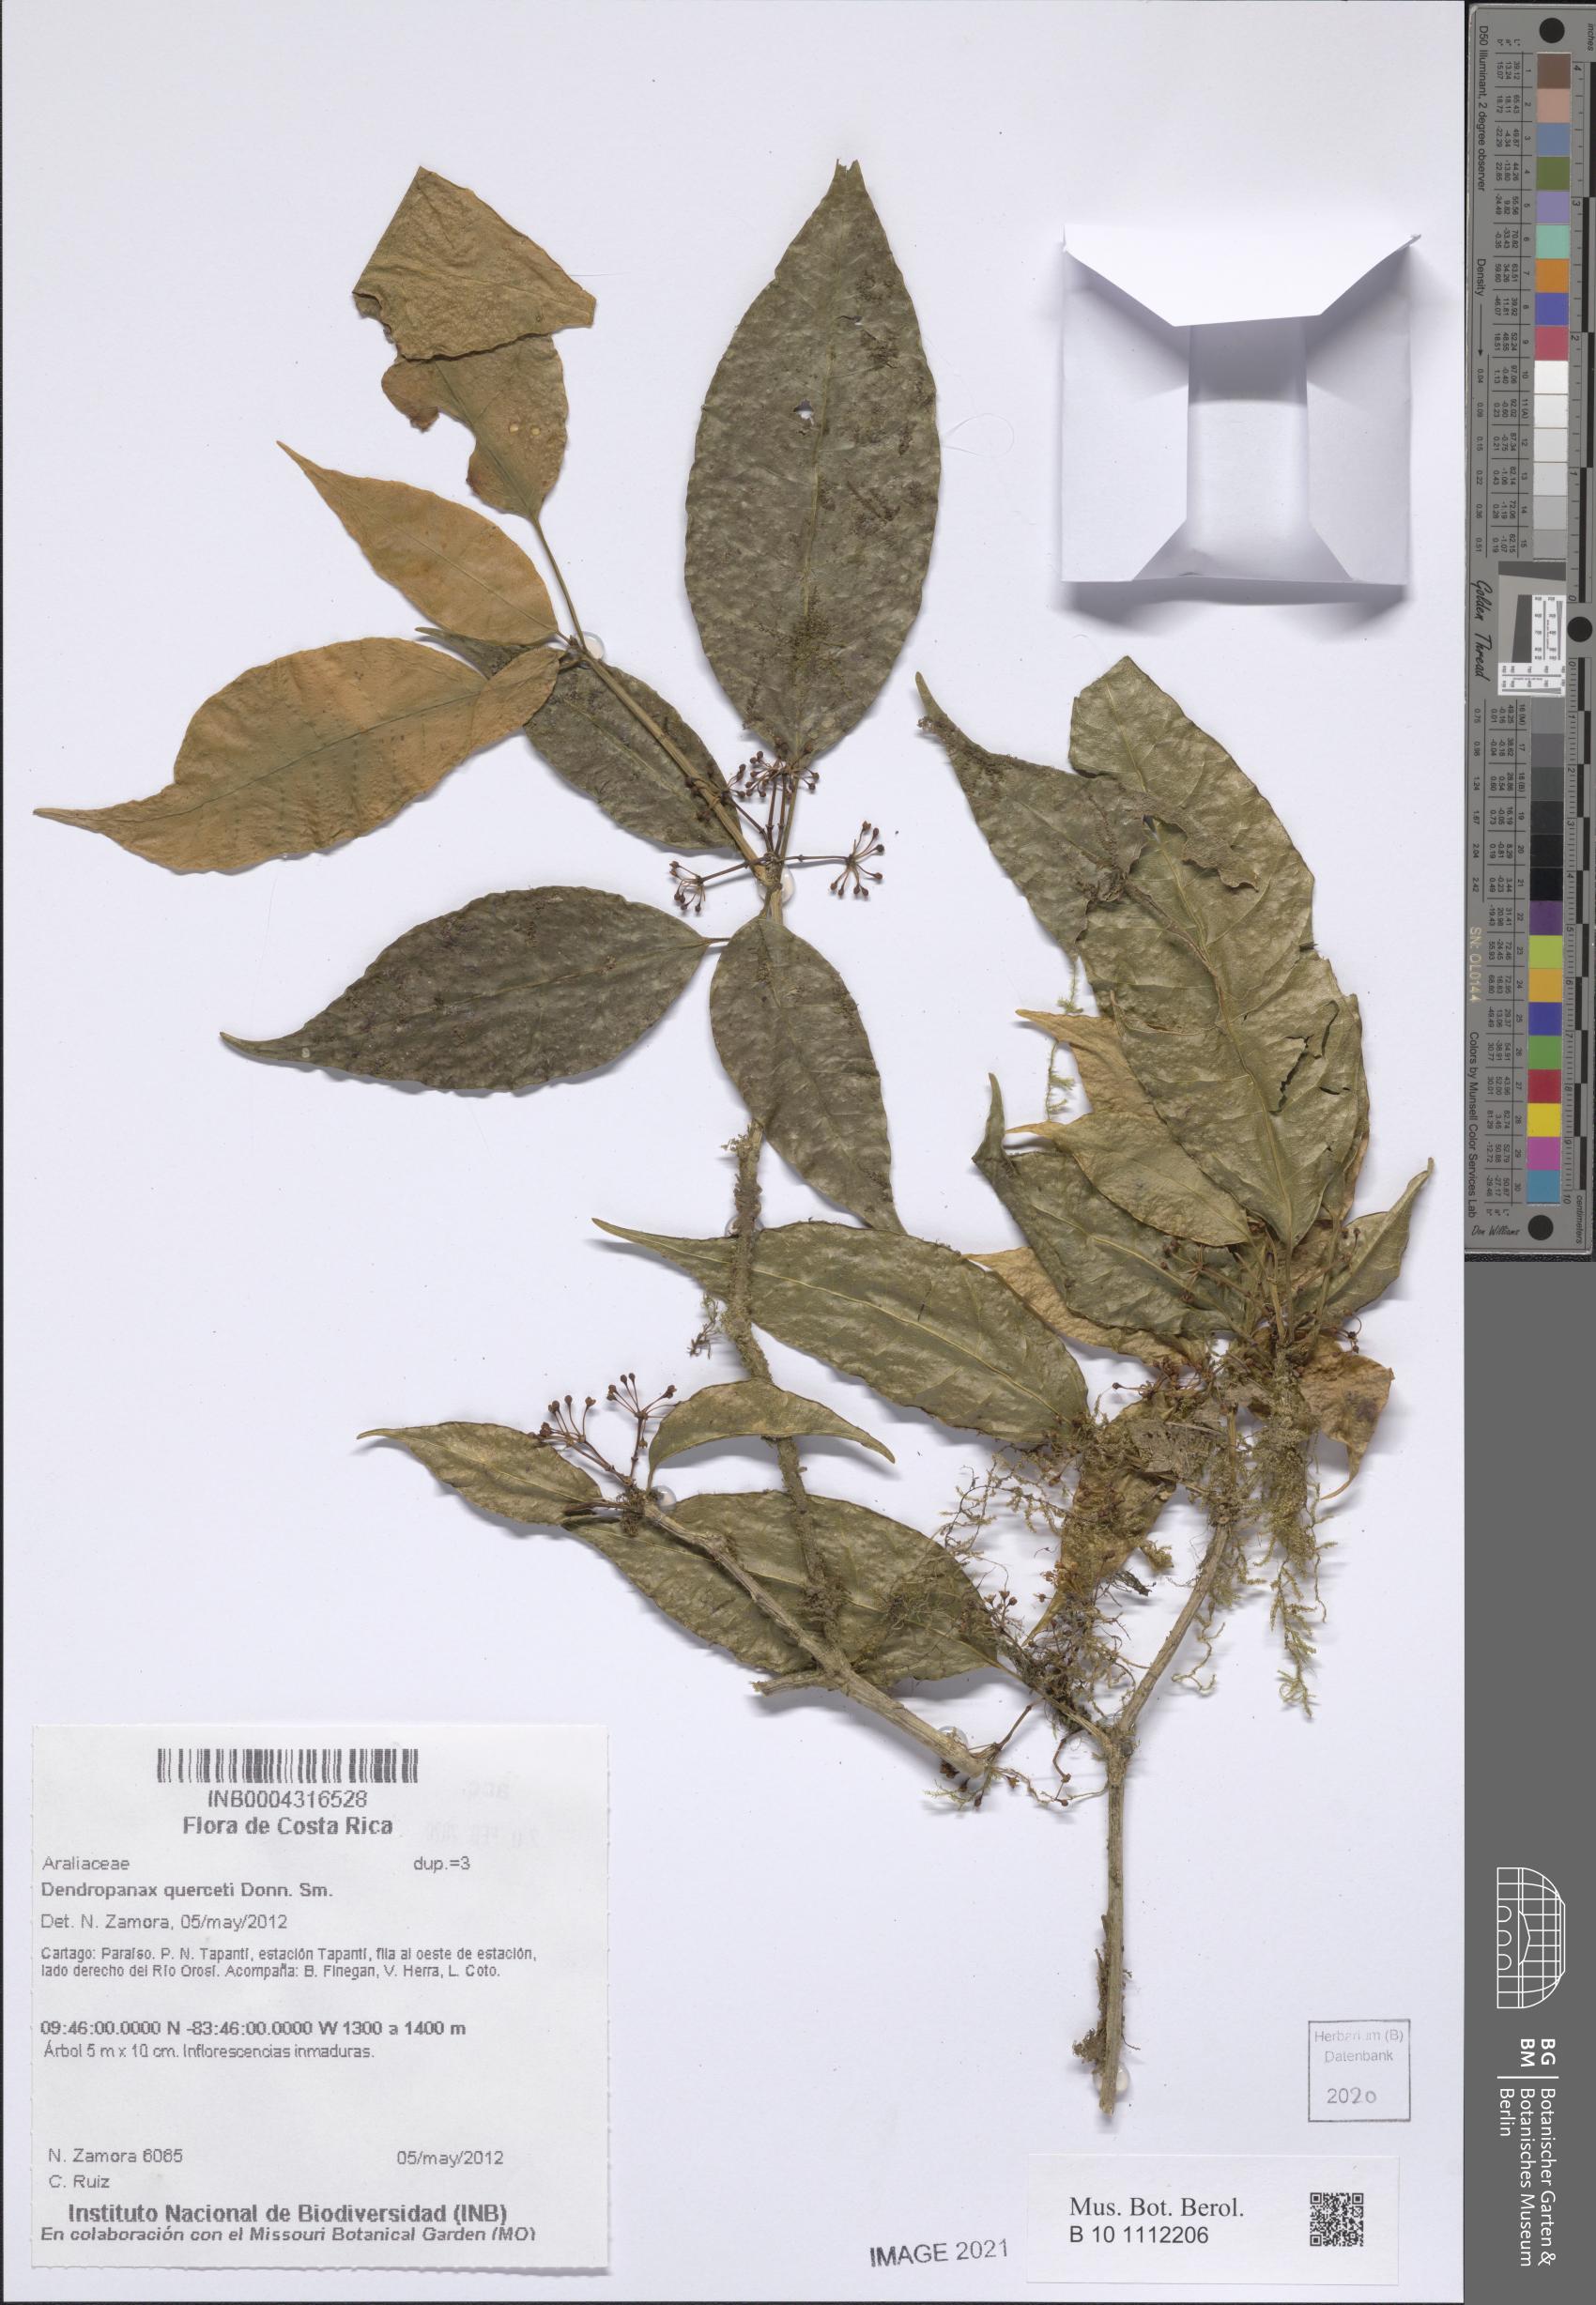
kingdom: Plantae
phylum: Tracheophyta
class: Magnoliopsida
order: Apiales
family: Araliaceae
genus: Dendropanax
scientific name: Dendropanax querceti
